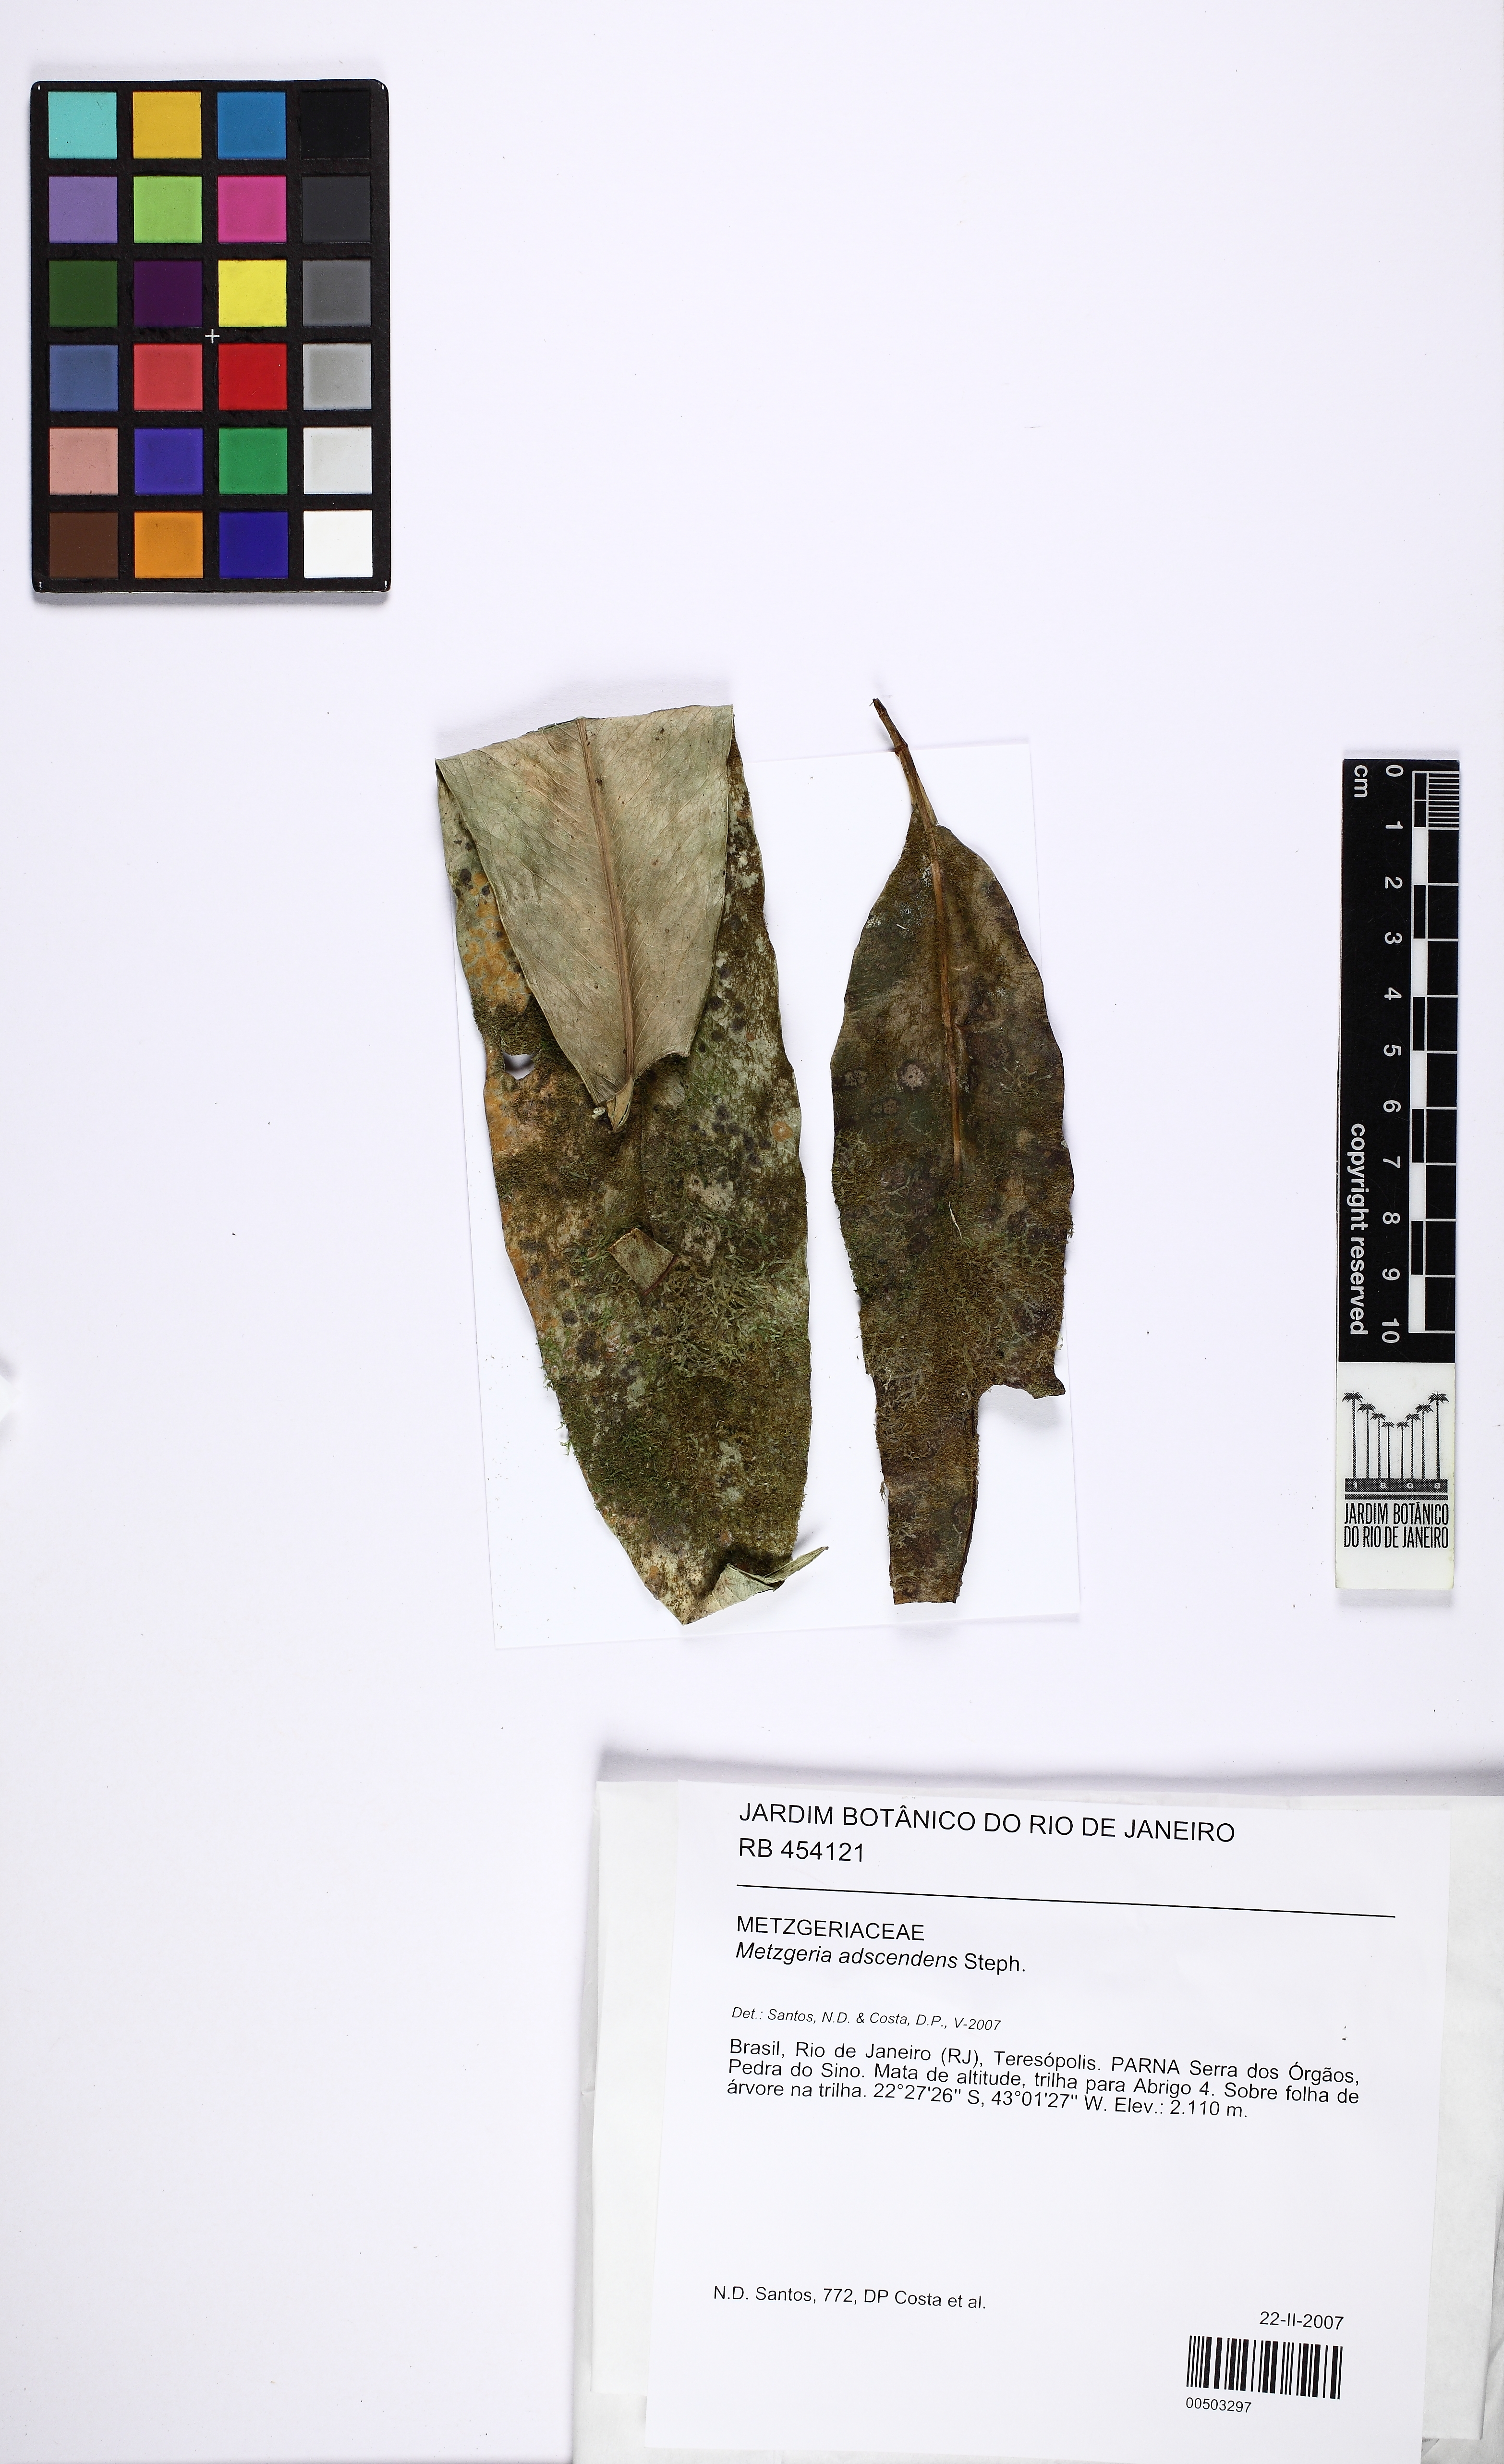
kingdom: Plantae
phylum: Marchantiophyta
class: Jungermanniopsida
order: Metzgeriales
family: Metzgeriaceae
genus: Metzgeria
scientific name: Metzgeria adscendens
